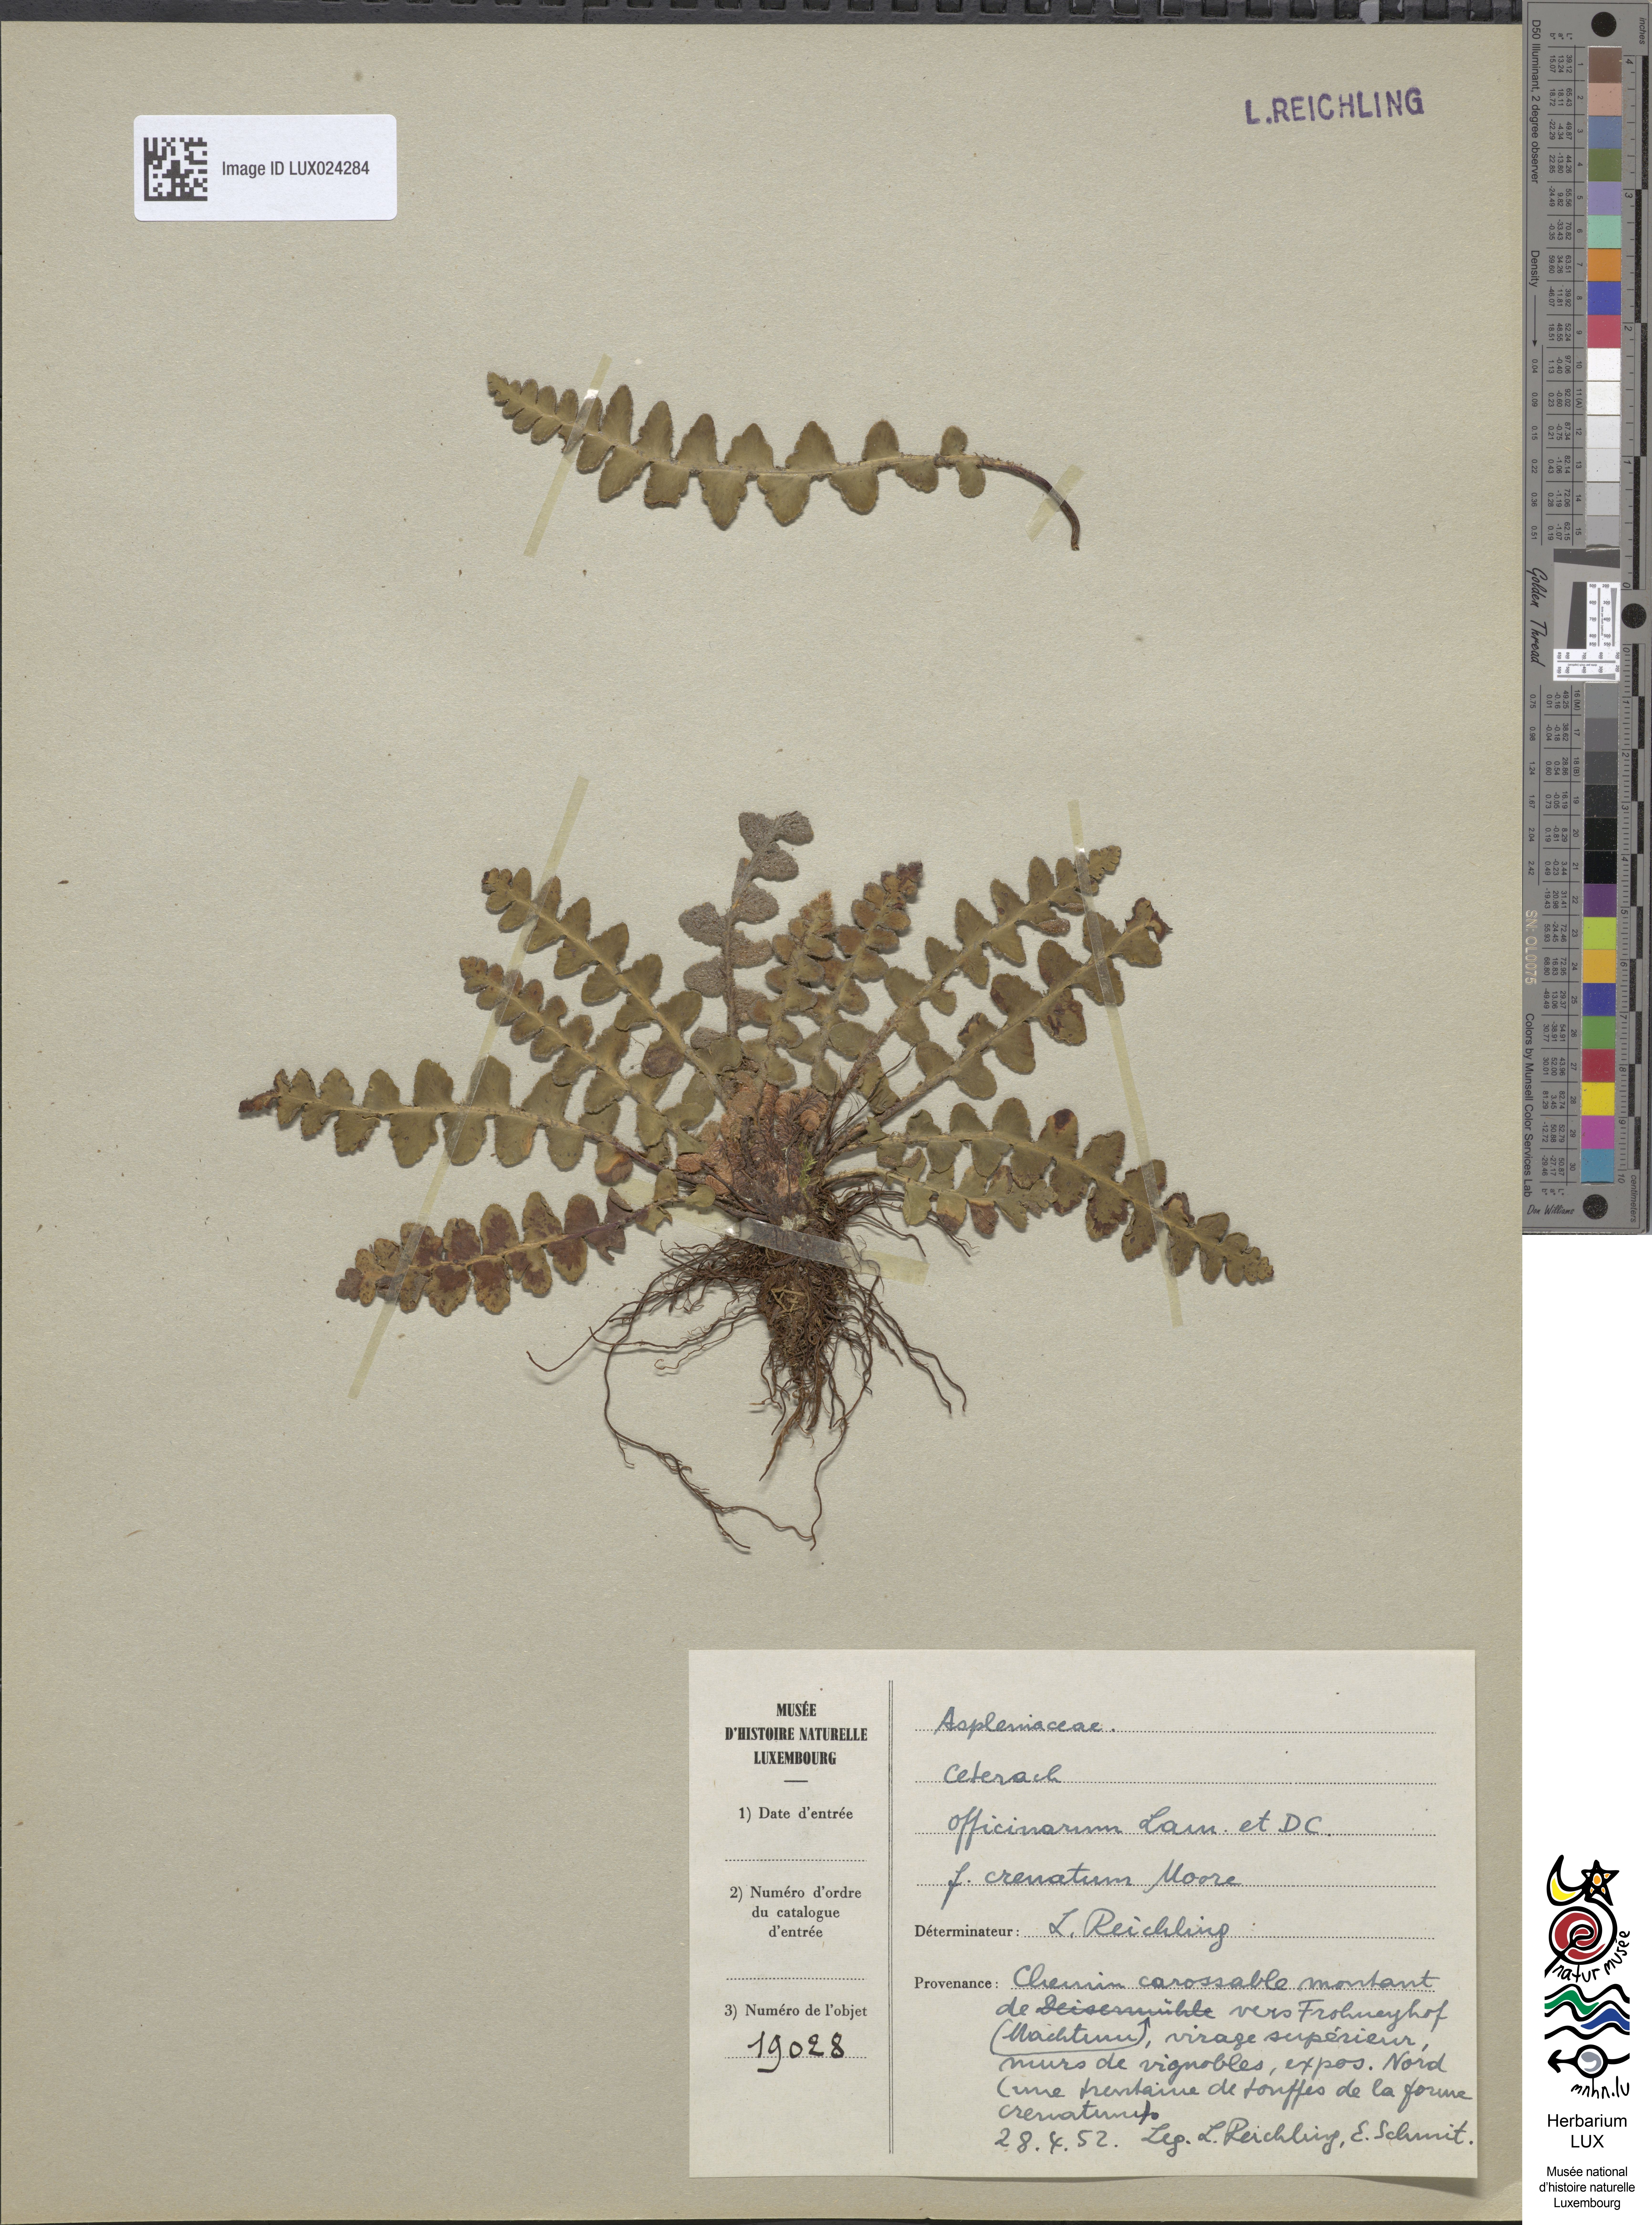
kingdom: Plantae
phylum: Tracheophyta
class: Polypodiopsida
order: Polypodiales
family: Aspleniaceae
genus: Asplenium
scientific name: Asplenium ceterach
